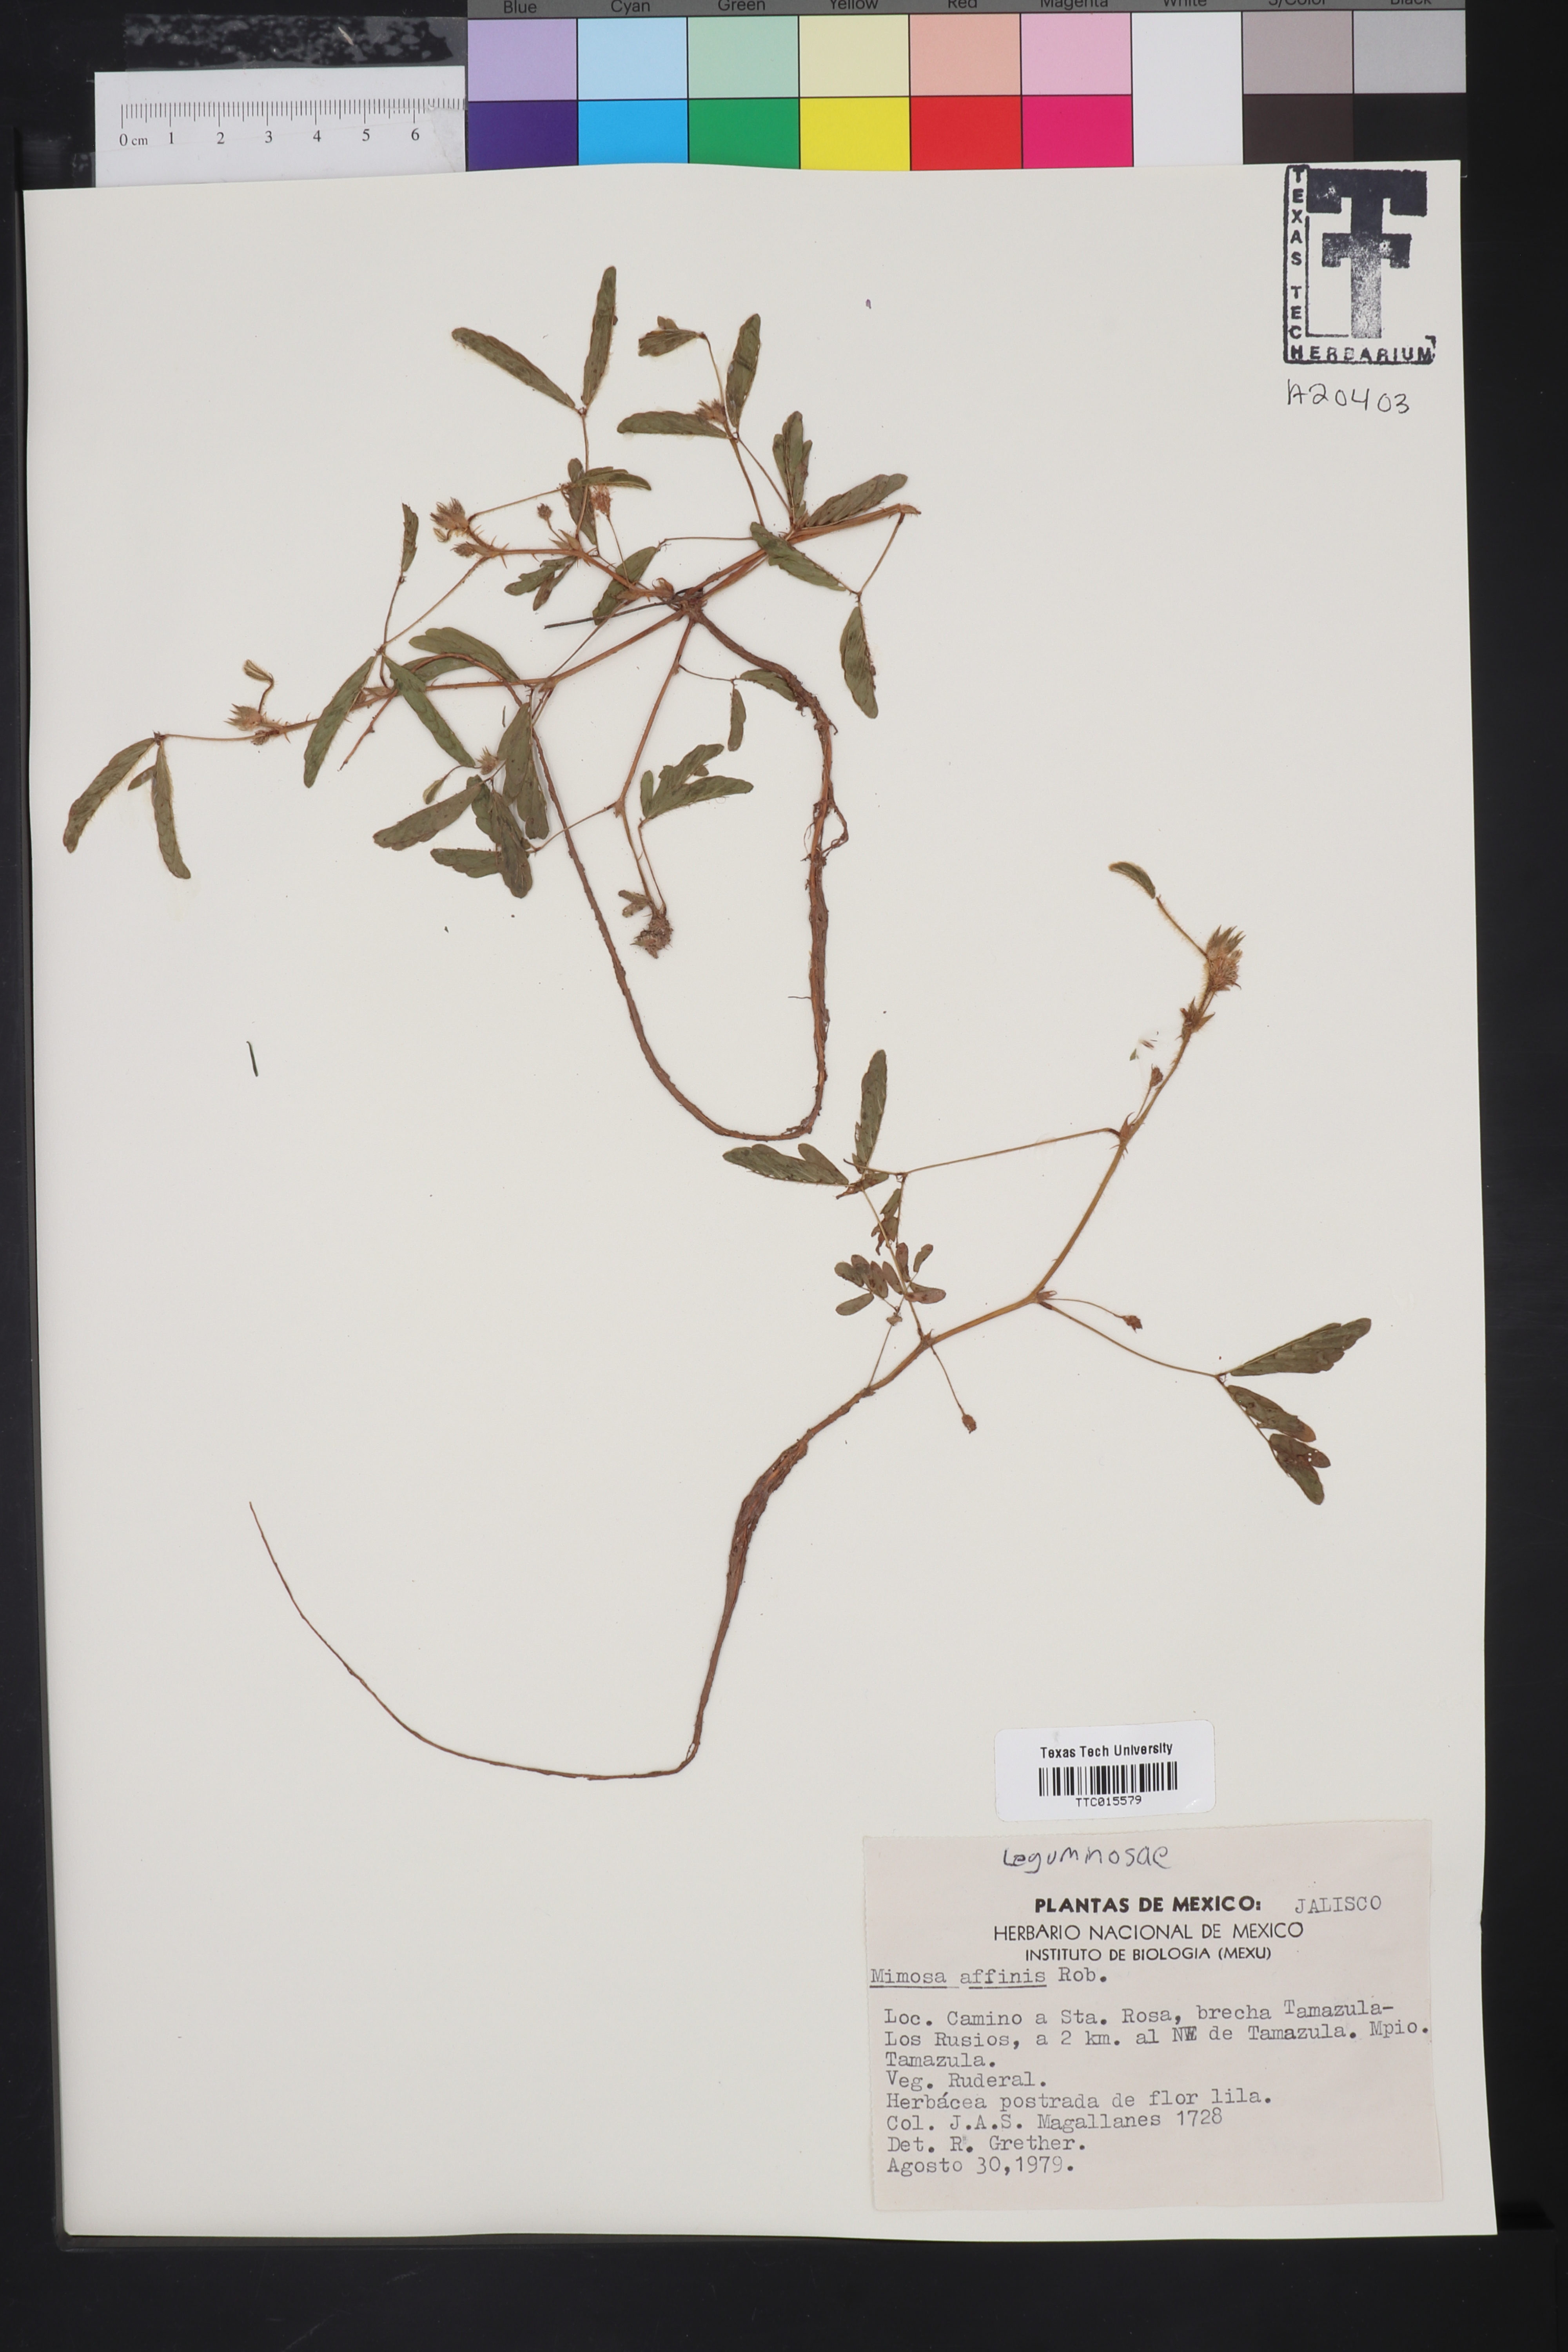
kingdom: Plantae
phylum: Tracheophyta
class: Magnoliopsida
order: Fabales
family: Fabaceae
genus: Mimosa
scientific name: Mimosa affinis
